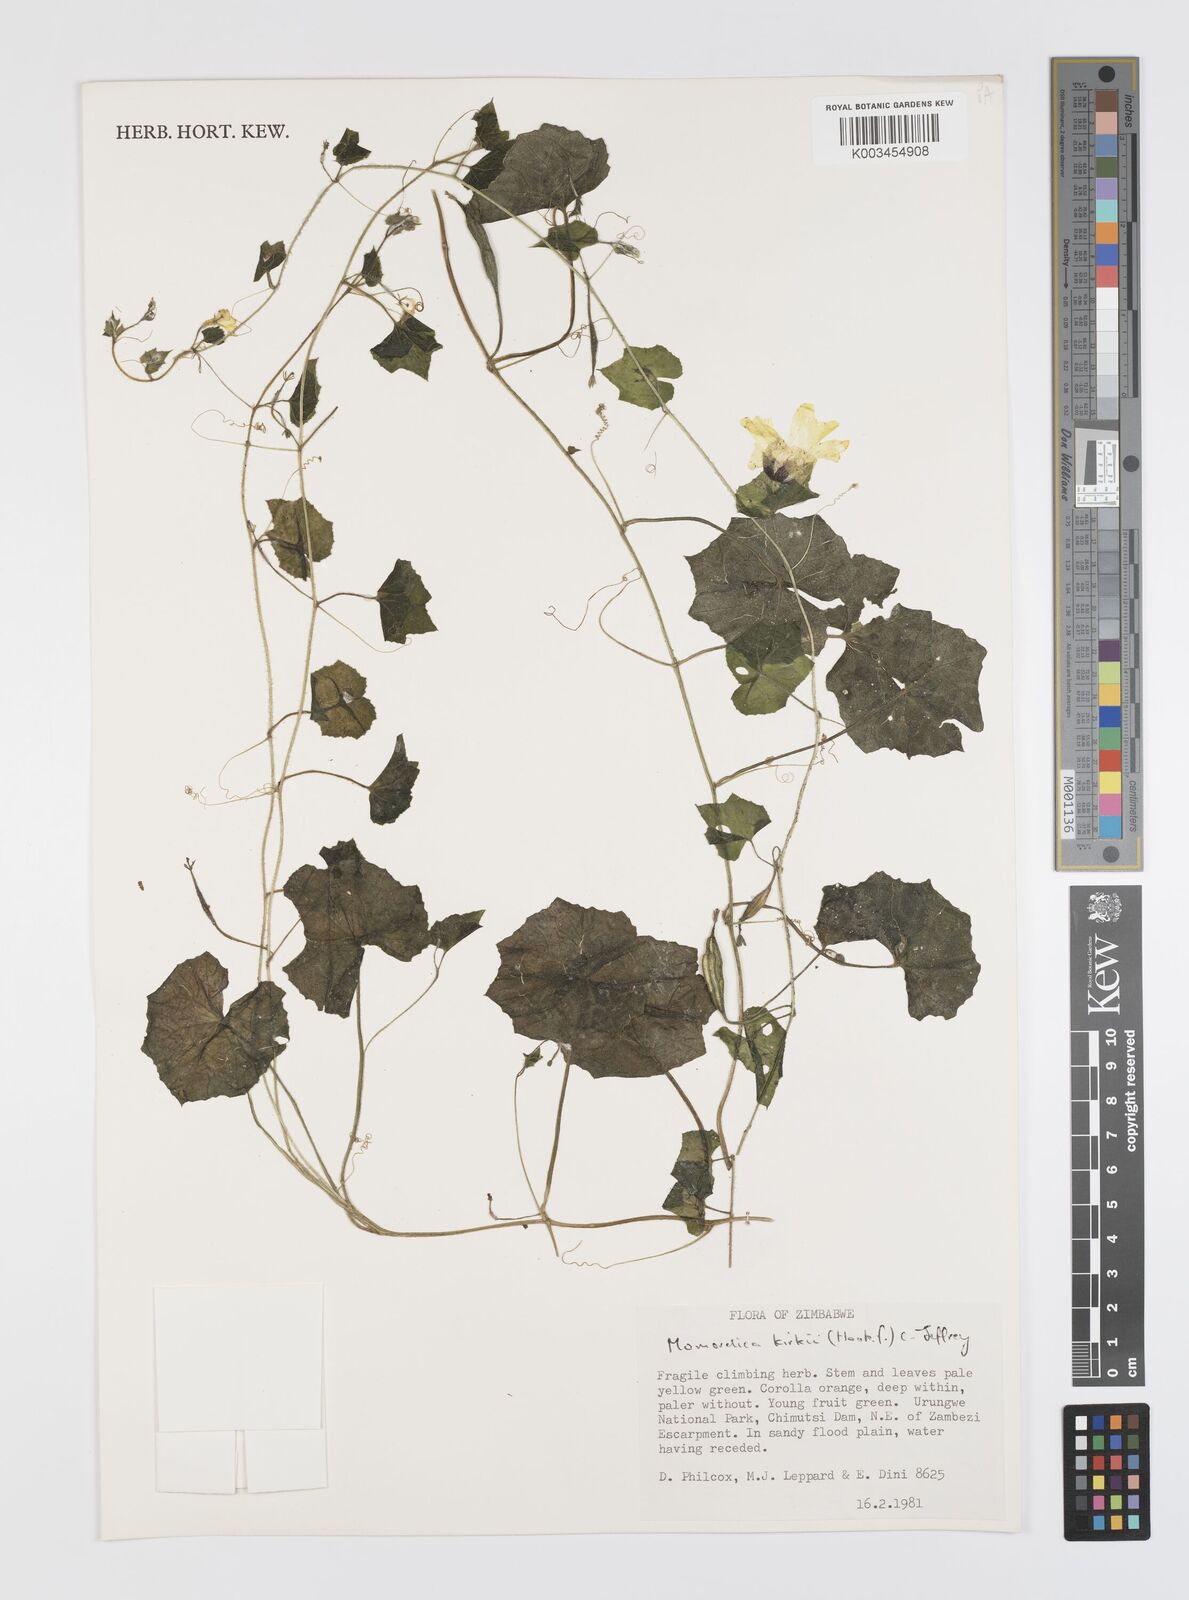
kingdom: Plantae
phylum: Tracheophyta
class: Magnoliopsida
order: Cucurbitales
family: Cucurbitaceae
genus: Momordica
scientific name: Momordica kirkii
